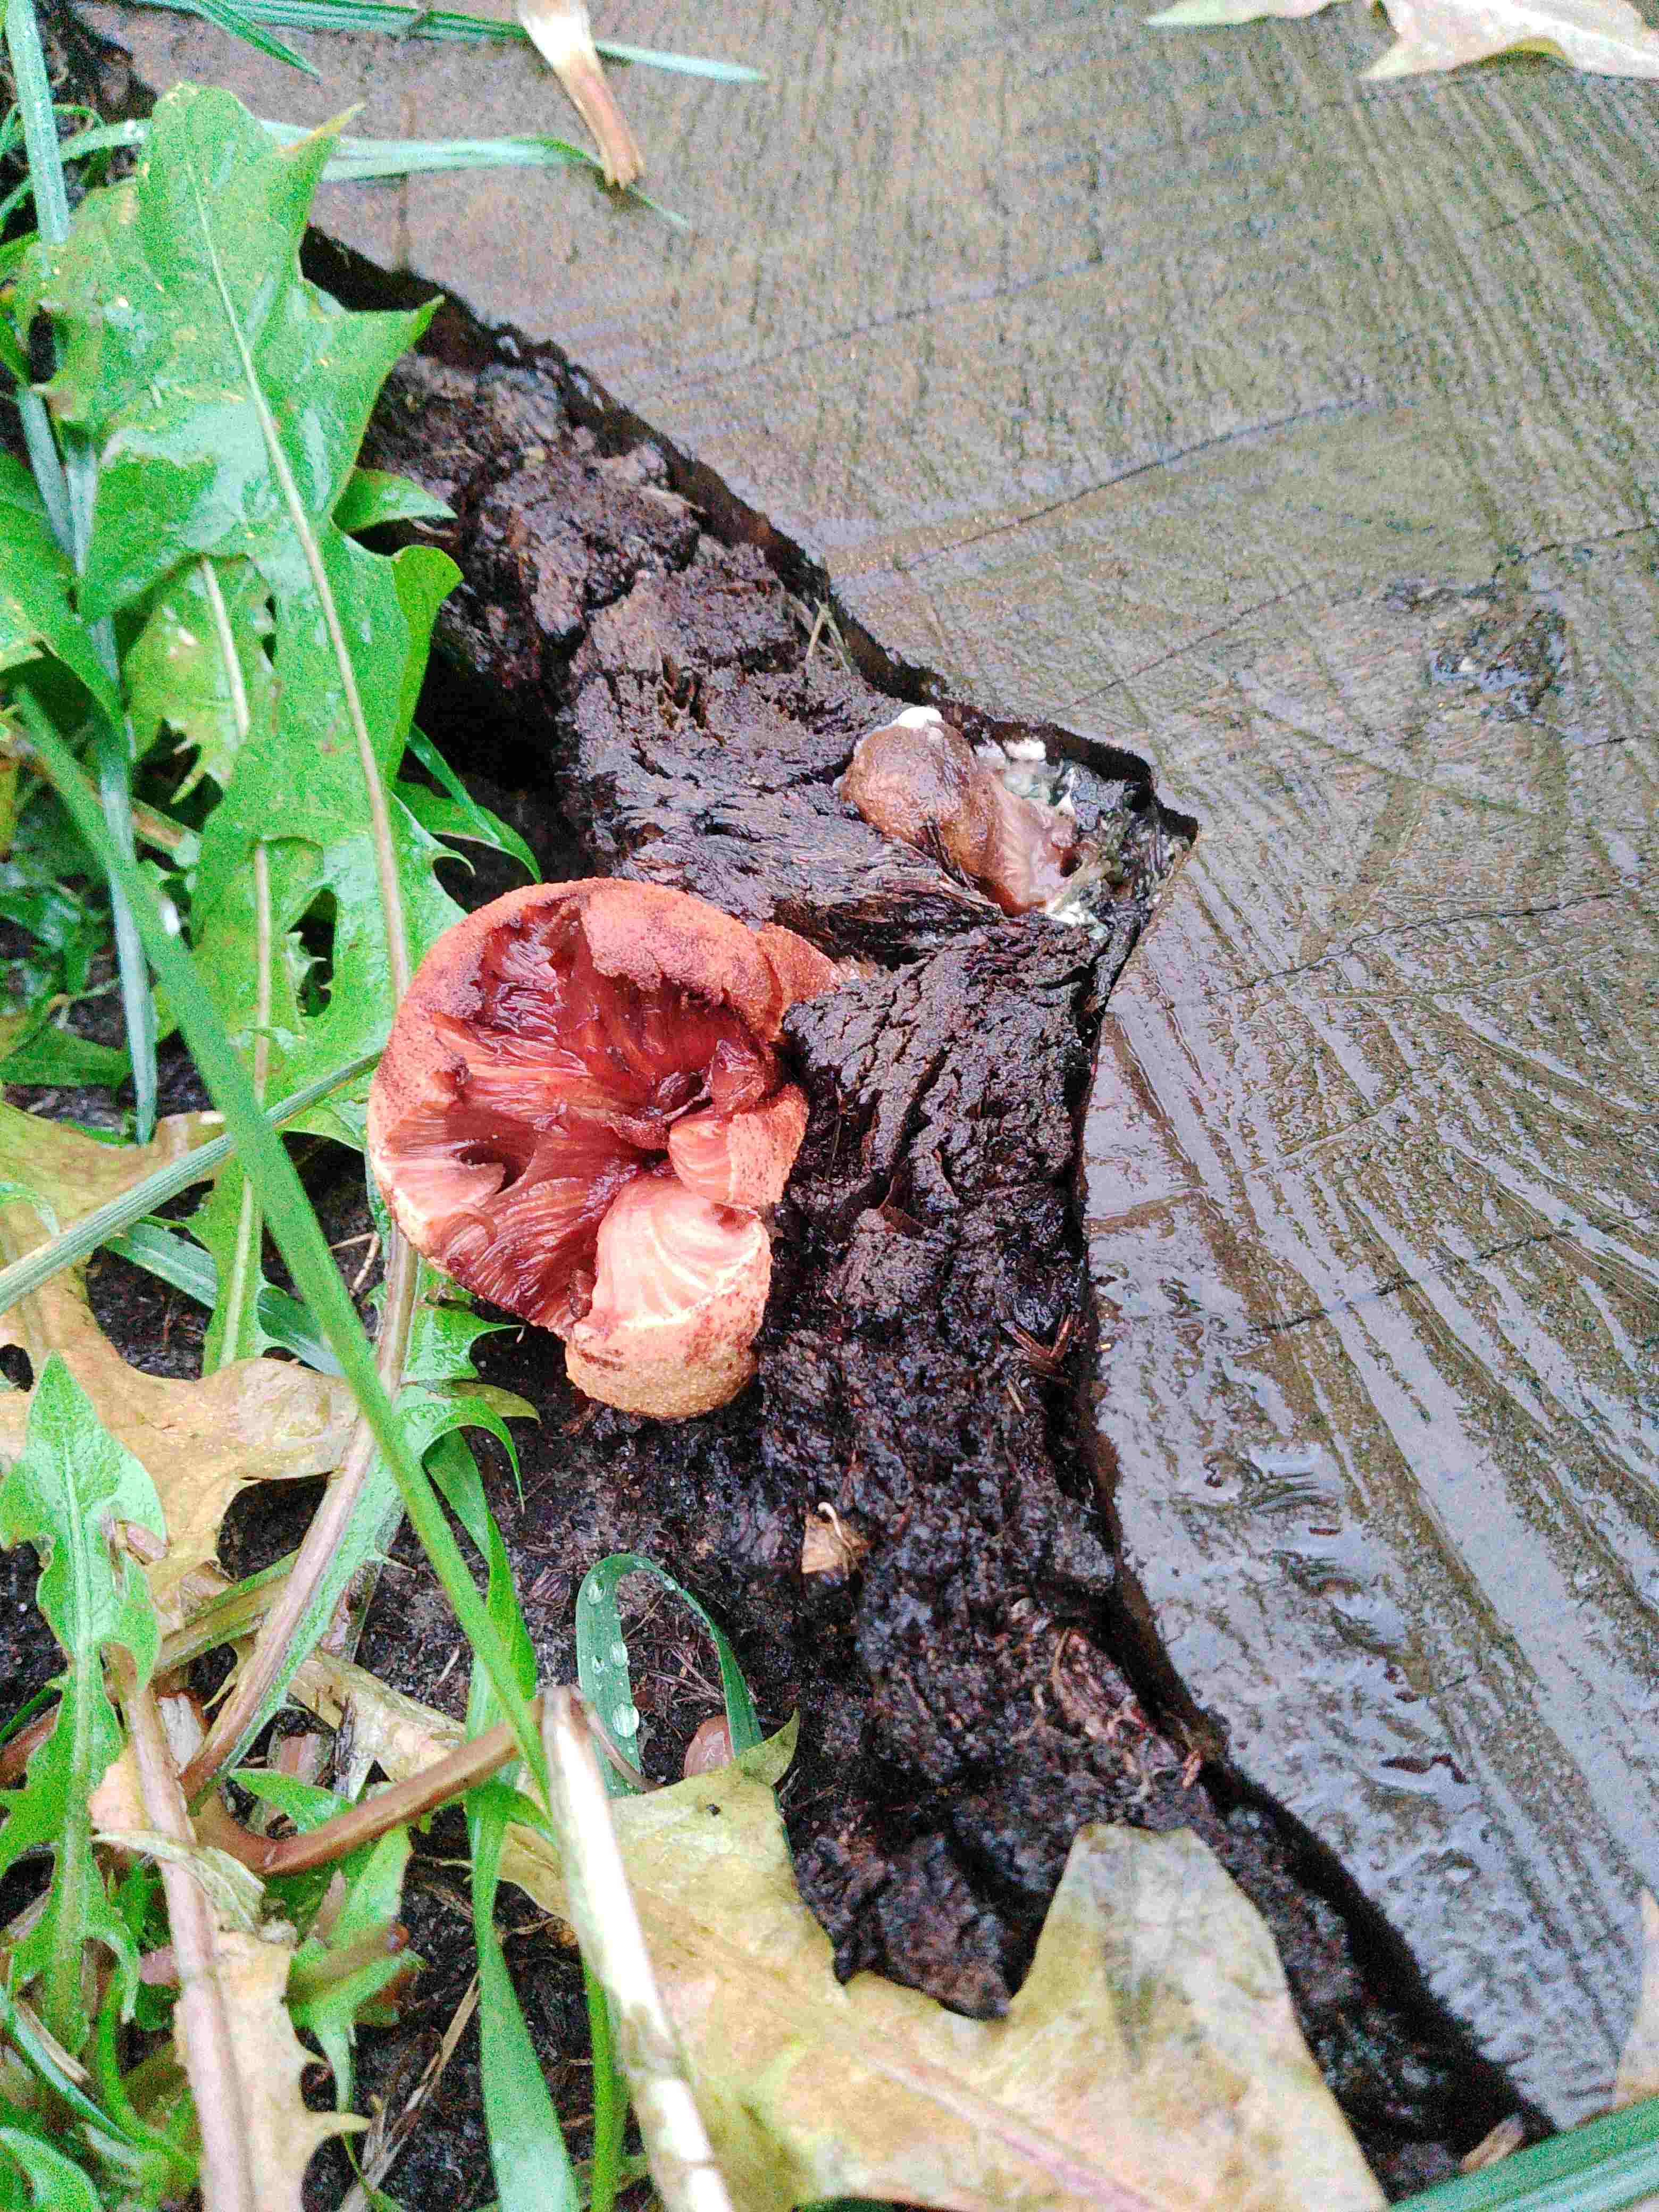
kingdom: Fungi
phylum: Basidiomycota
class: Agaricomycetes
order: Agaricales
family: Fistulinaceae
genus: Fistulina
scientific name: Fistulina hepatica
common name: oksetunge
